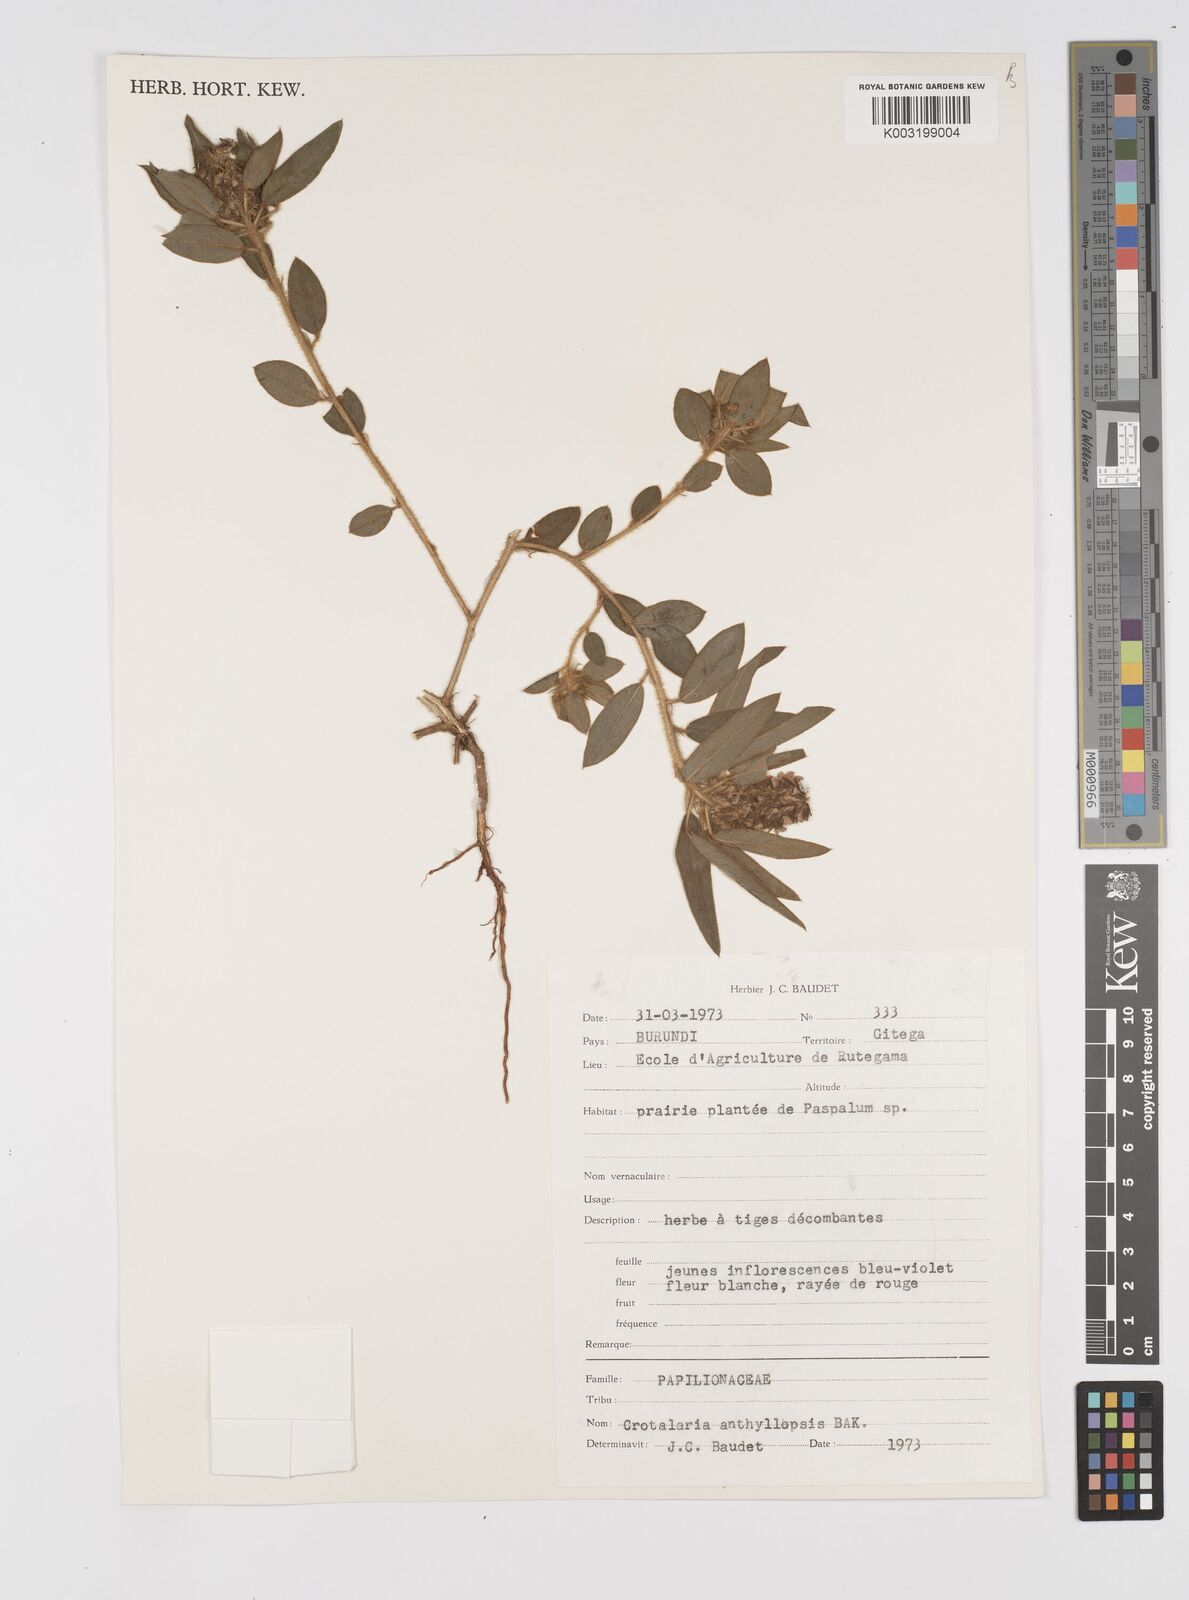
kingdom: Plantae
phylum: Tracheophyta
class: Magnoliopsida
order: Fabales
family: Fabaceae
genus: Crotalaria
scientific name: Crotalaria anthyllopsis
